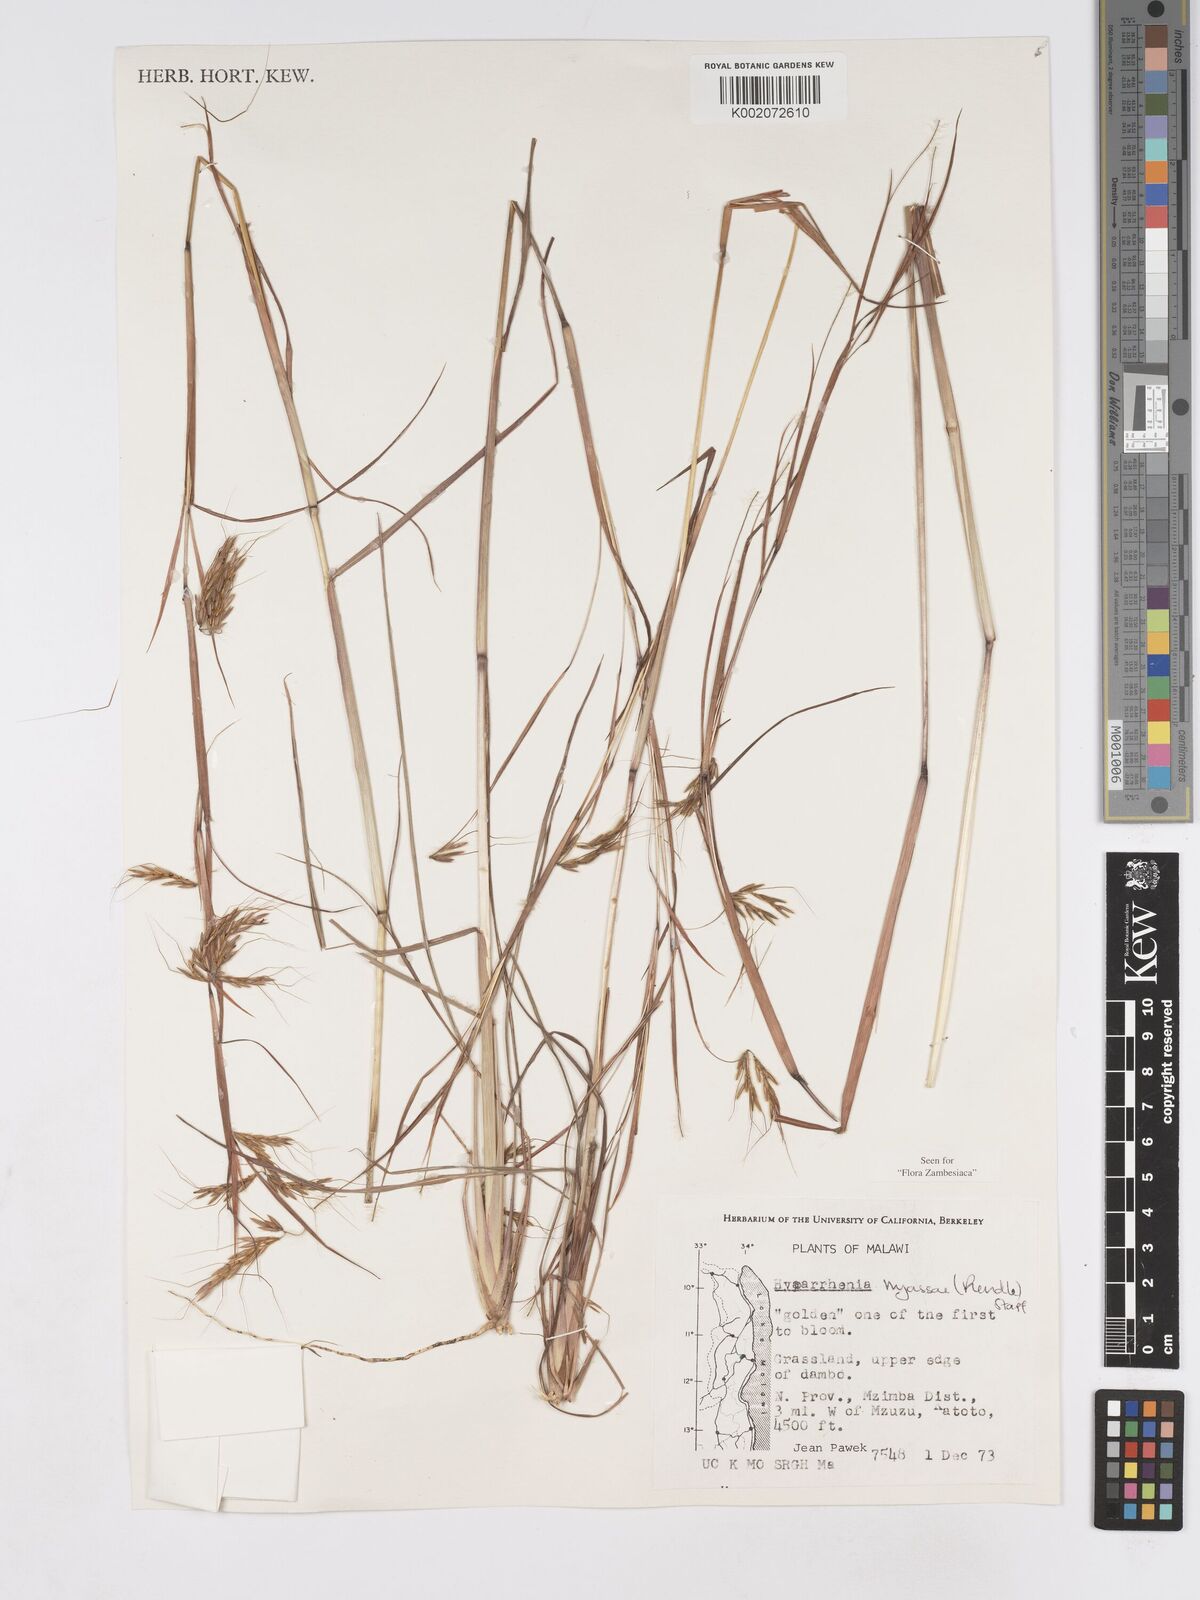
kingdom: Plantae
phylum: Tracheophyta
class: Liliopsida
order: Poales
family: Poaceae
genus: Hyparrhenia
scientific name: Hyparrhenia nyassae
